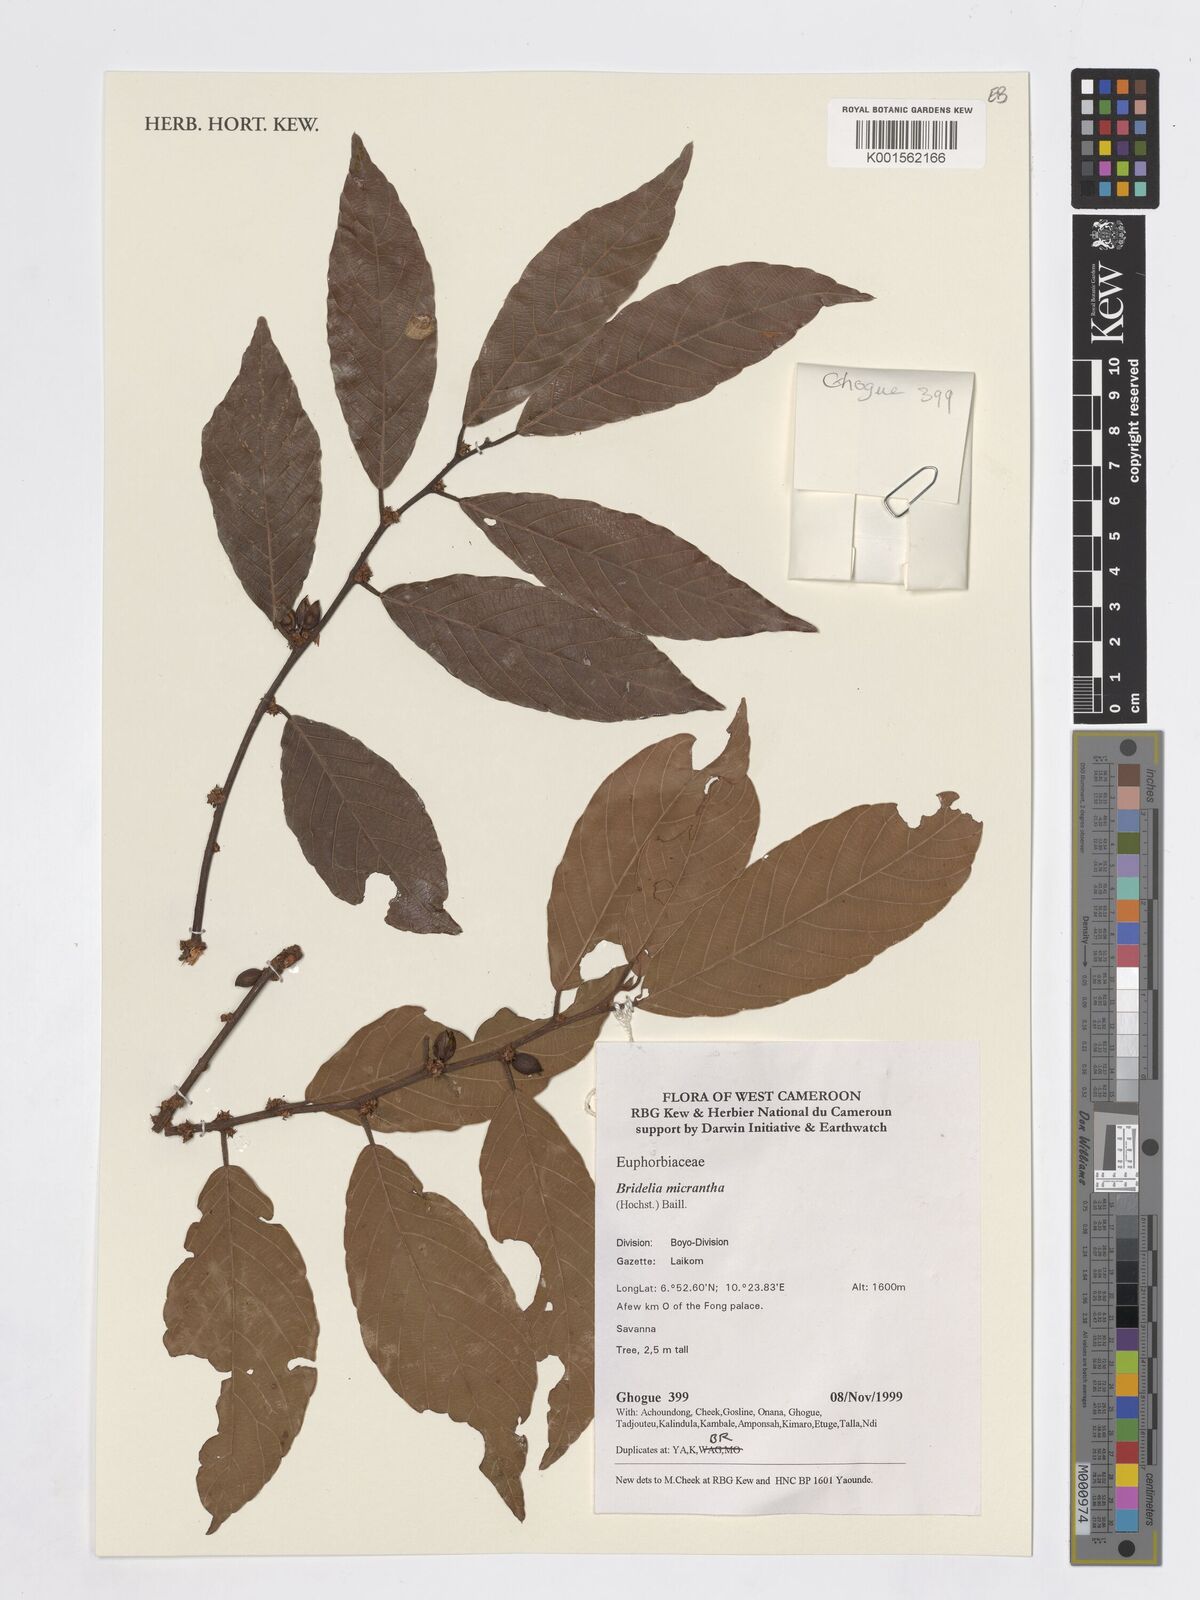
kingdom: Plantae
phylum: Tracheophyta
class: Magnoliopsida
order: Malpighiales
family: Phyllanthaceae
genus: Bridelia
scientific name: Bridelia micrantha
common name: Bridelia
